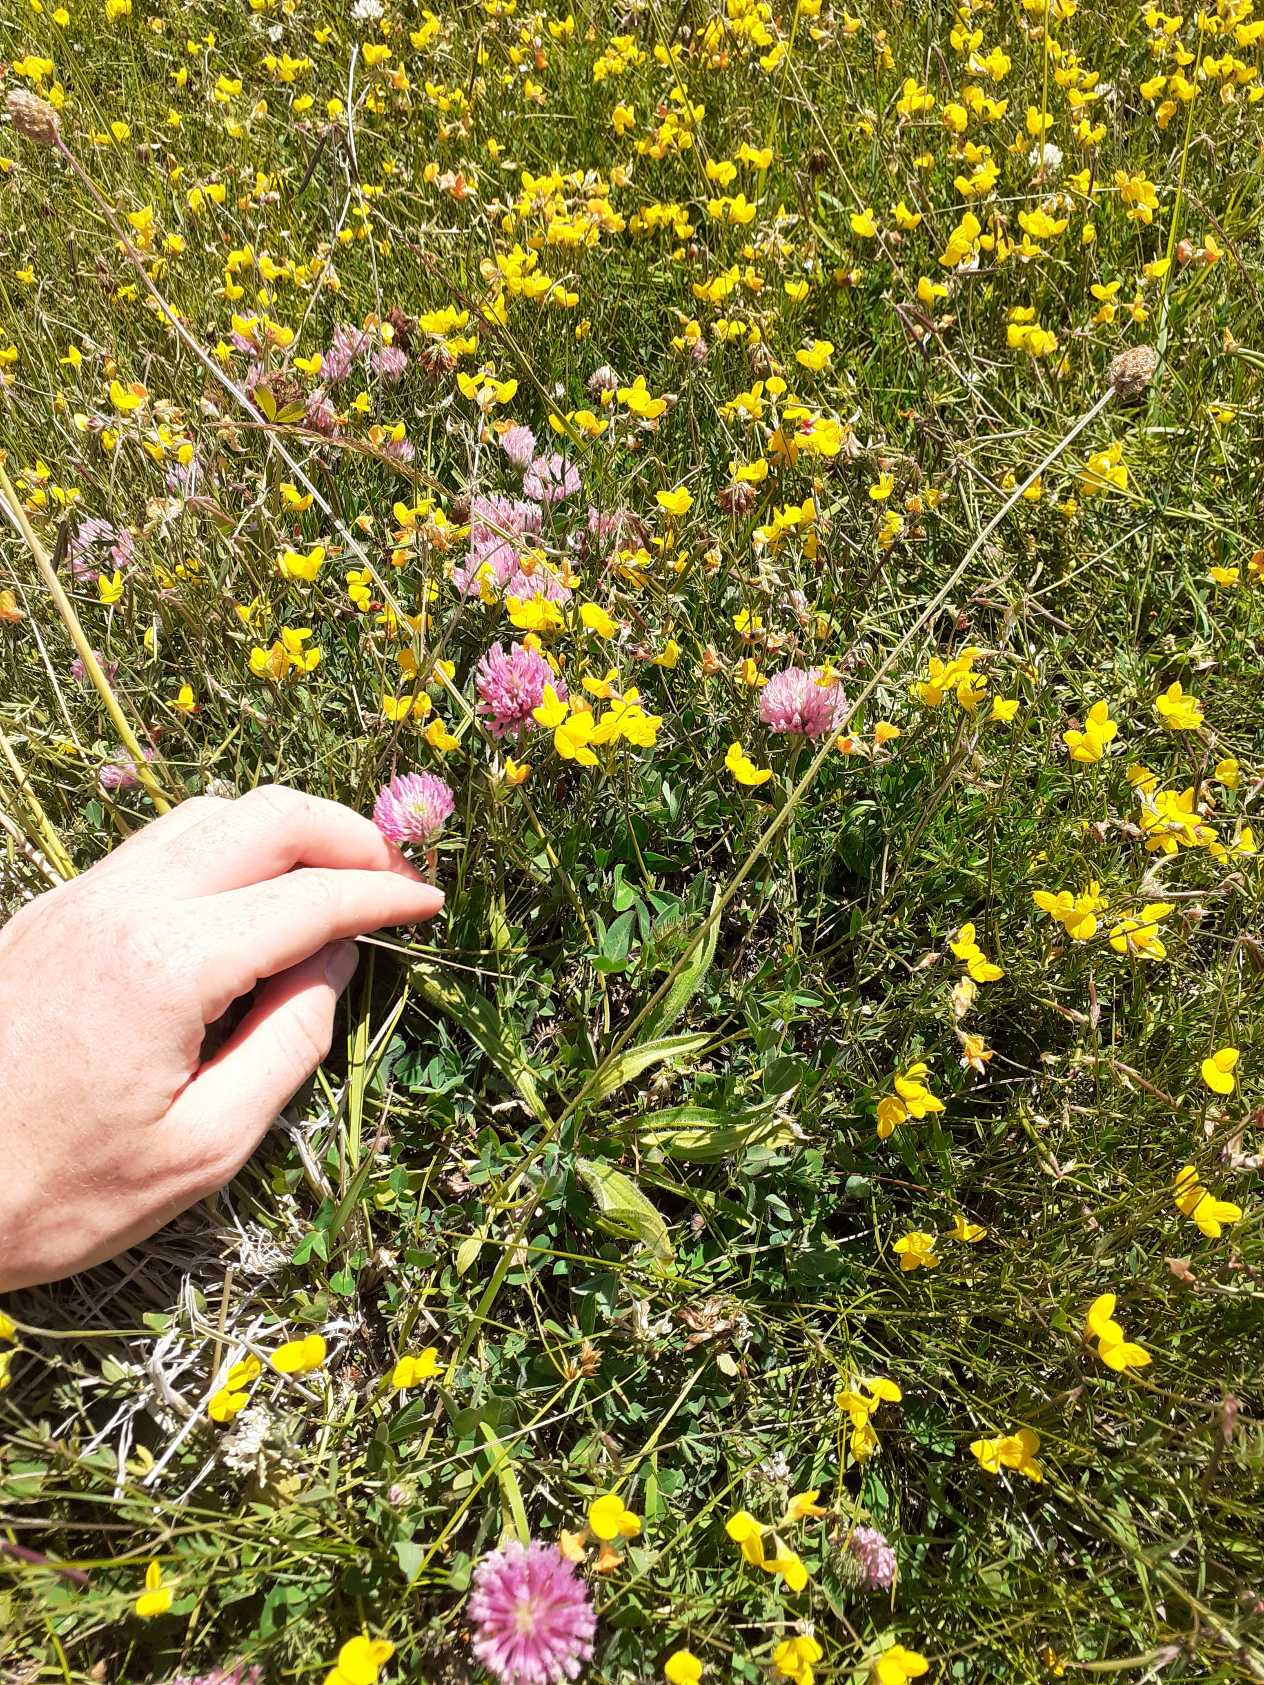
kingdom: Plantae
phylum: Tracheophyta
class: Magnoliopsida
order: Lamiales
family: Plantaginaceae
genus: Plantago
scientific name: Plantago lanceolata
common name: Lancet-vejbred
